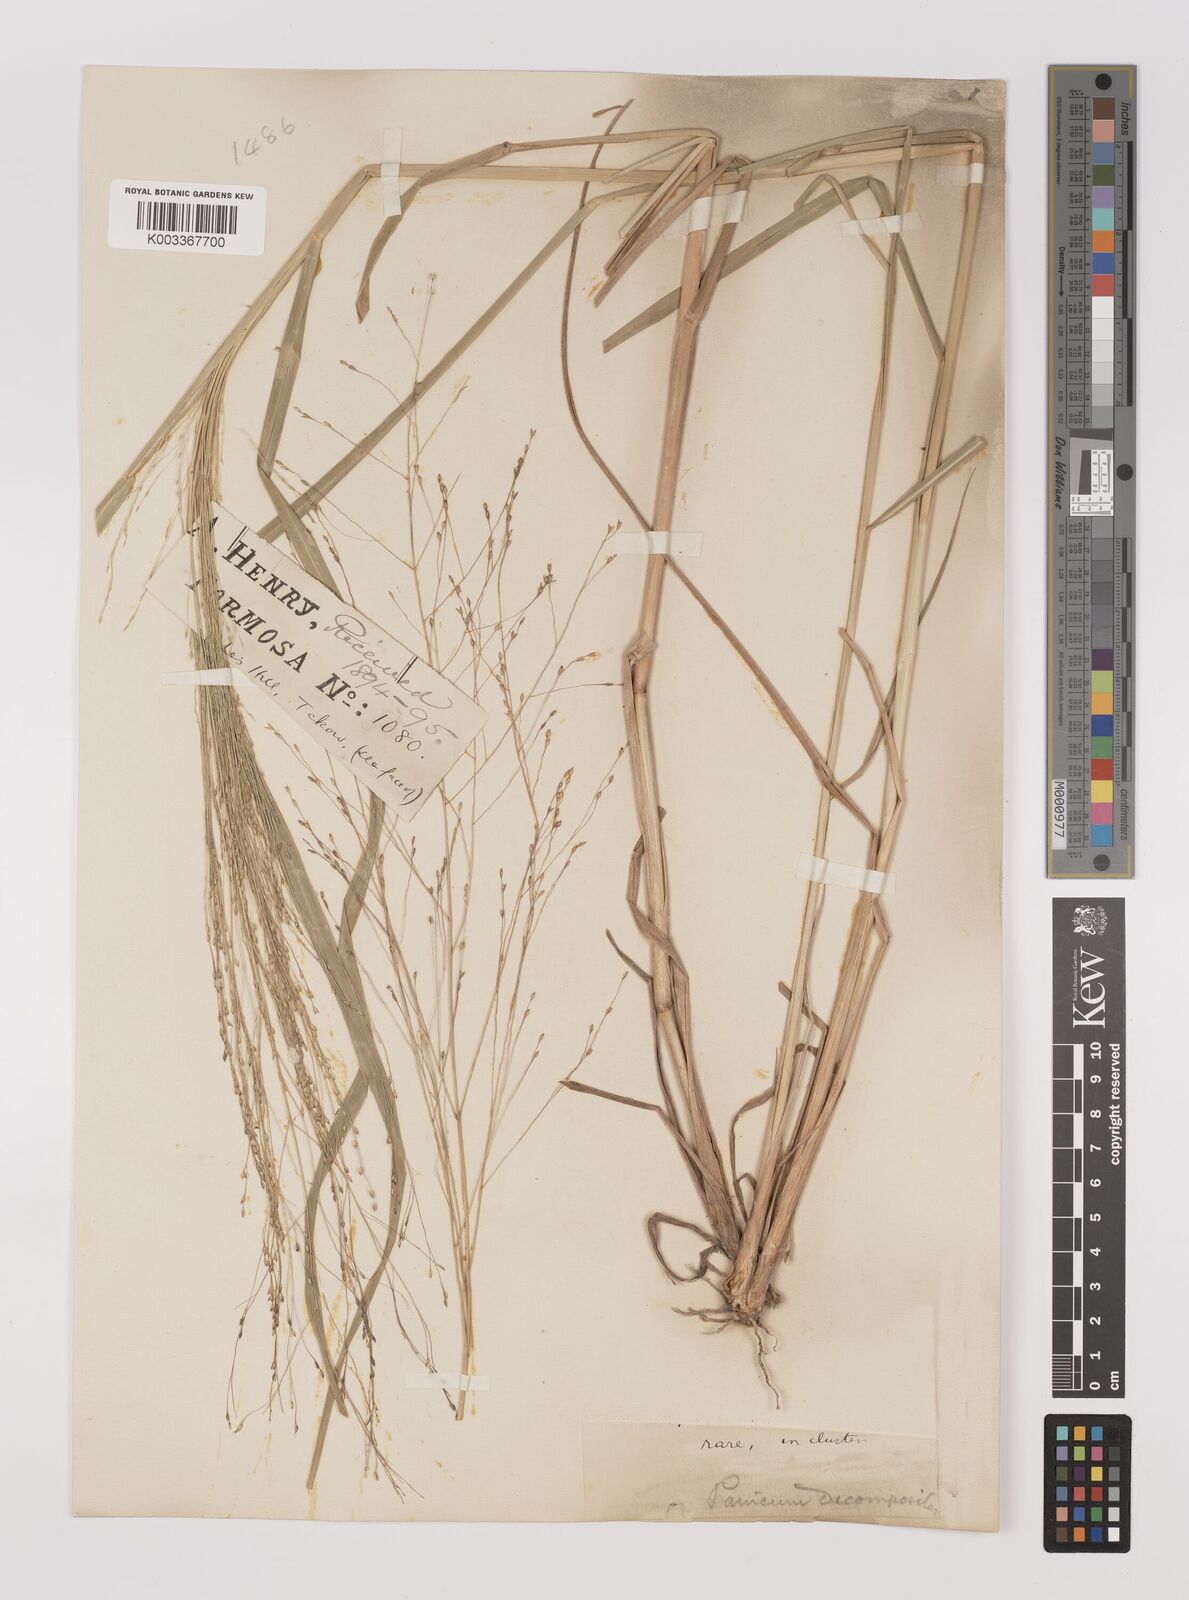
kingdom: Plantae
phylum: Tracheophyta
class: Liliopsida
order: Poales
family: Poaceae
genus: Panicum
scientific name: Panicum dichotomiflorum
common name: Autumn millet
